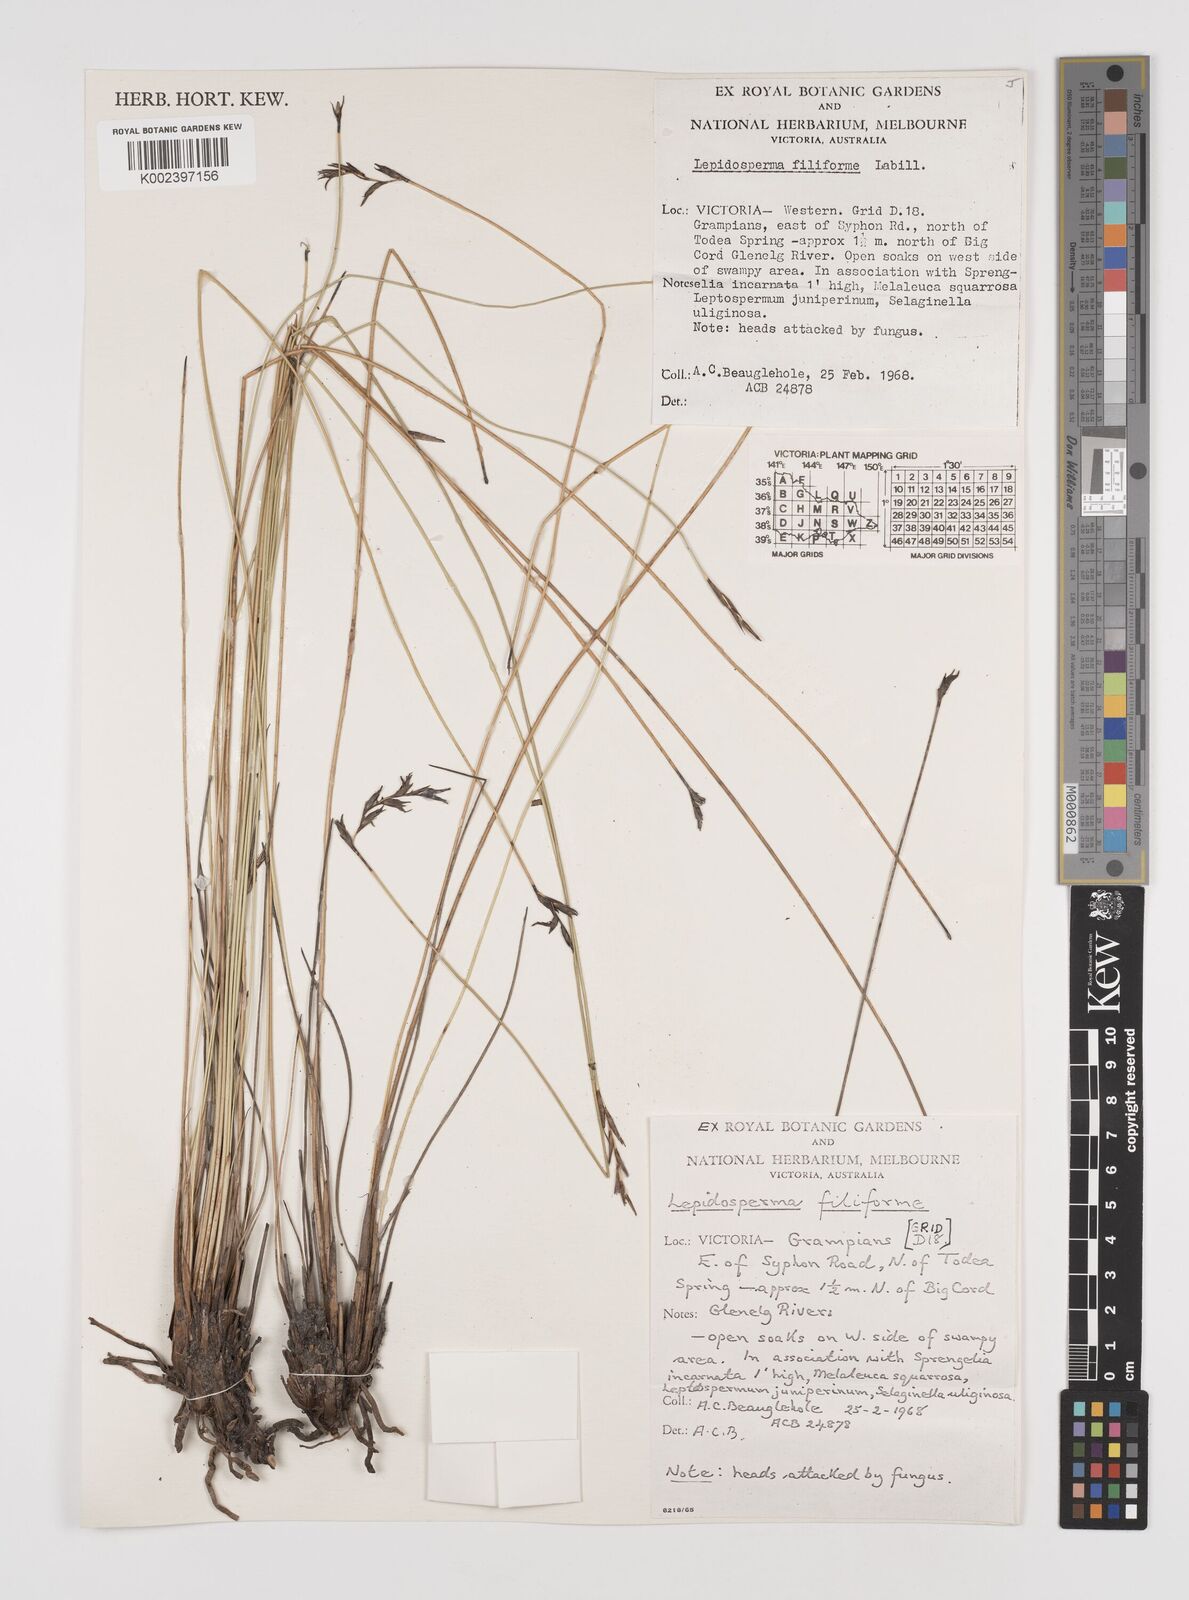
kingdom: Plantae
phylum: Tracheophyta
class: Liliopsida
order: Poales
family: Cyperaceae
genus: Lepidosperma
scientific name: Lepidosperma filiforme
